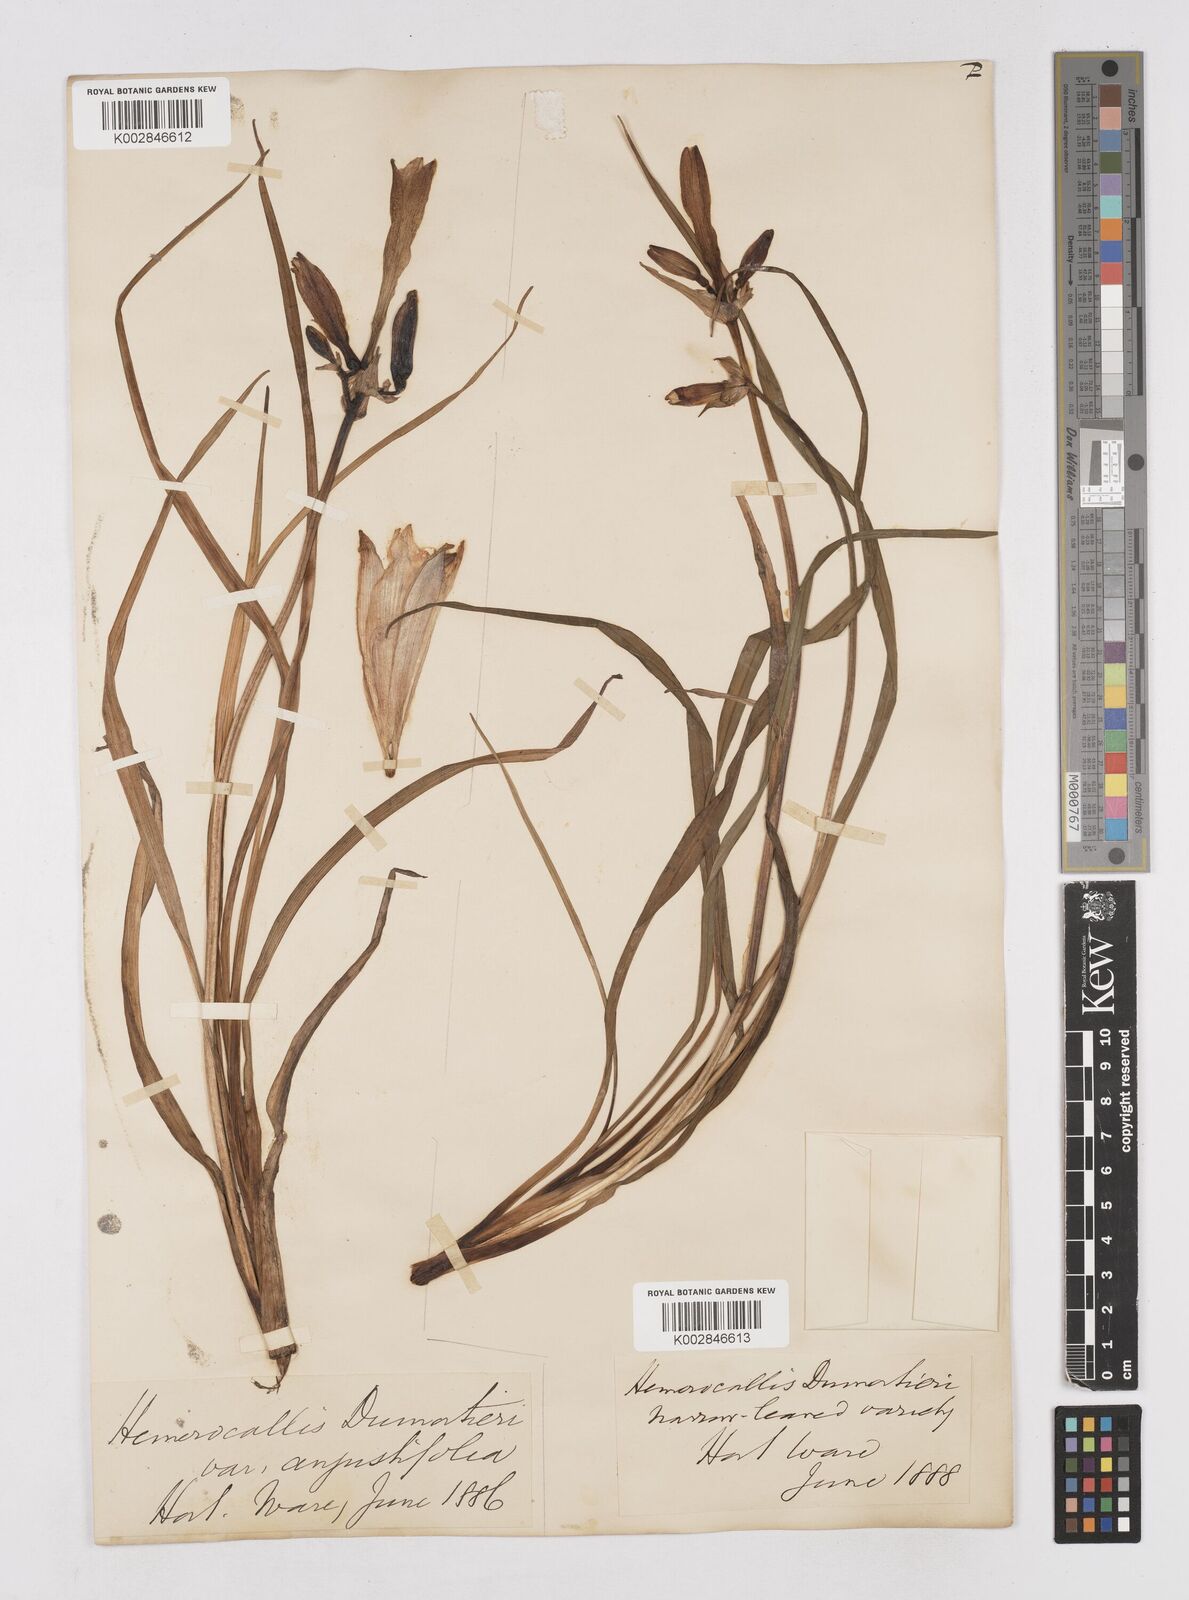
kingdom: Plantae
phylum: Tracheophyta
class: Liliopsida
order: Asparagales
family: Asphodelaceae
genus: Hemerocallis
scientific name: Hemerocallis dumortieri
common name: Dumortier's day-lily
